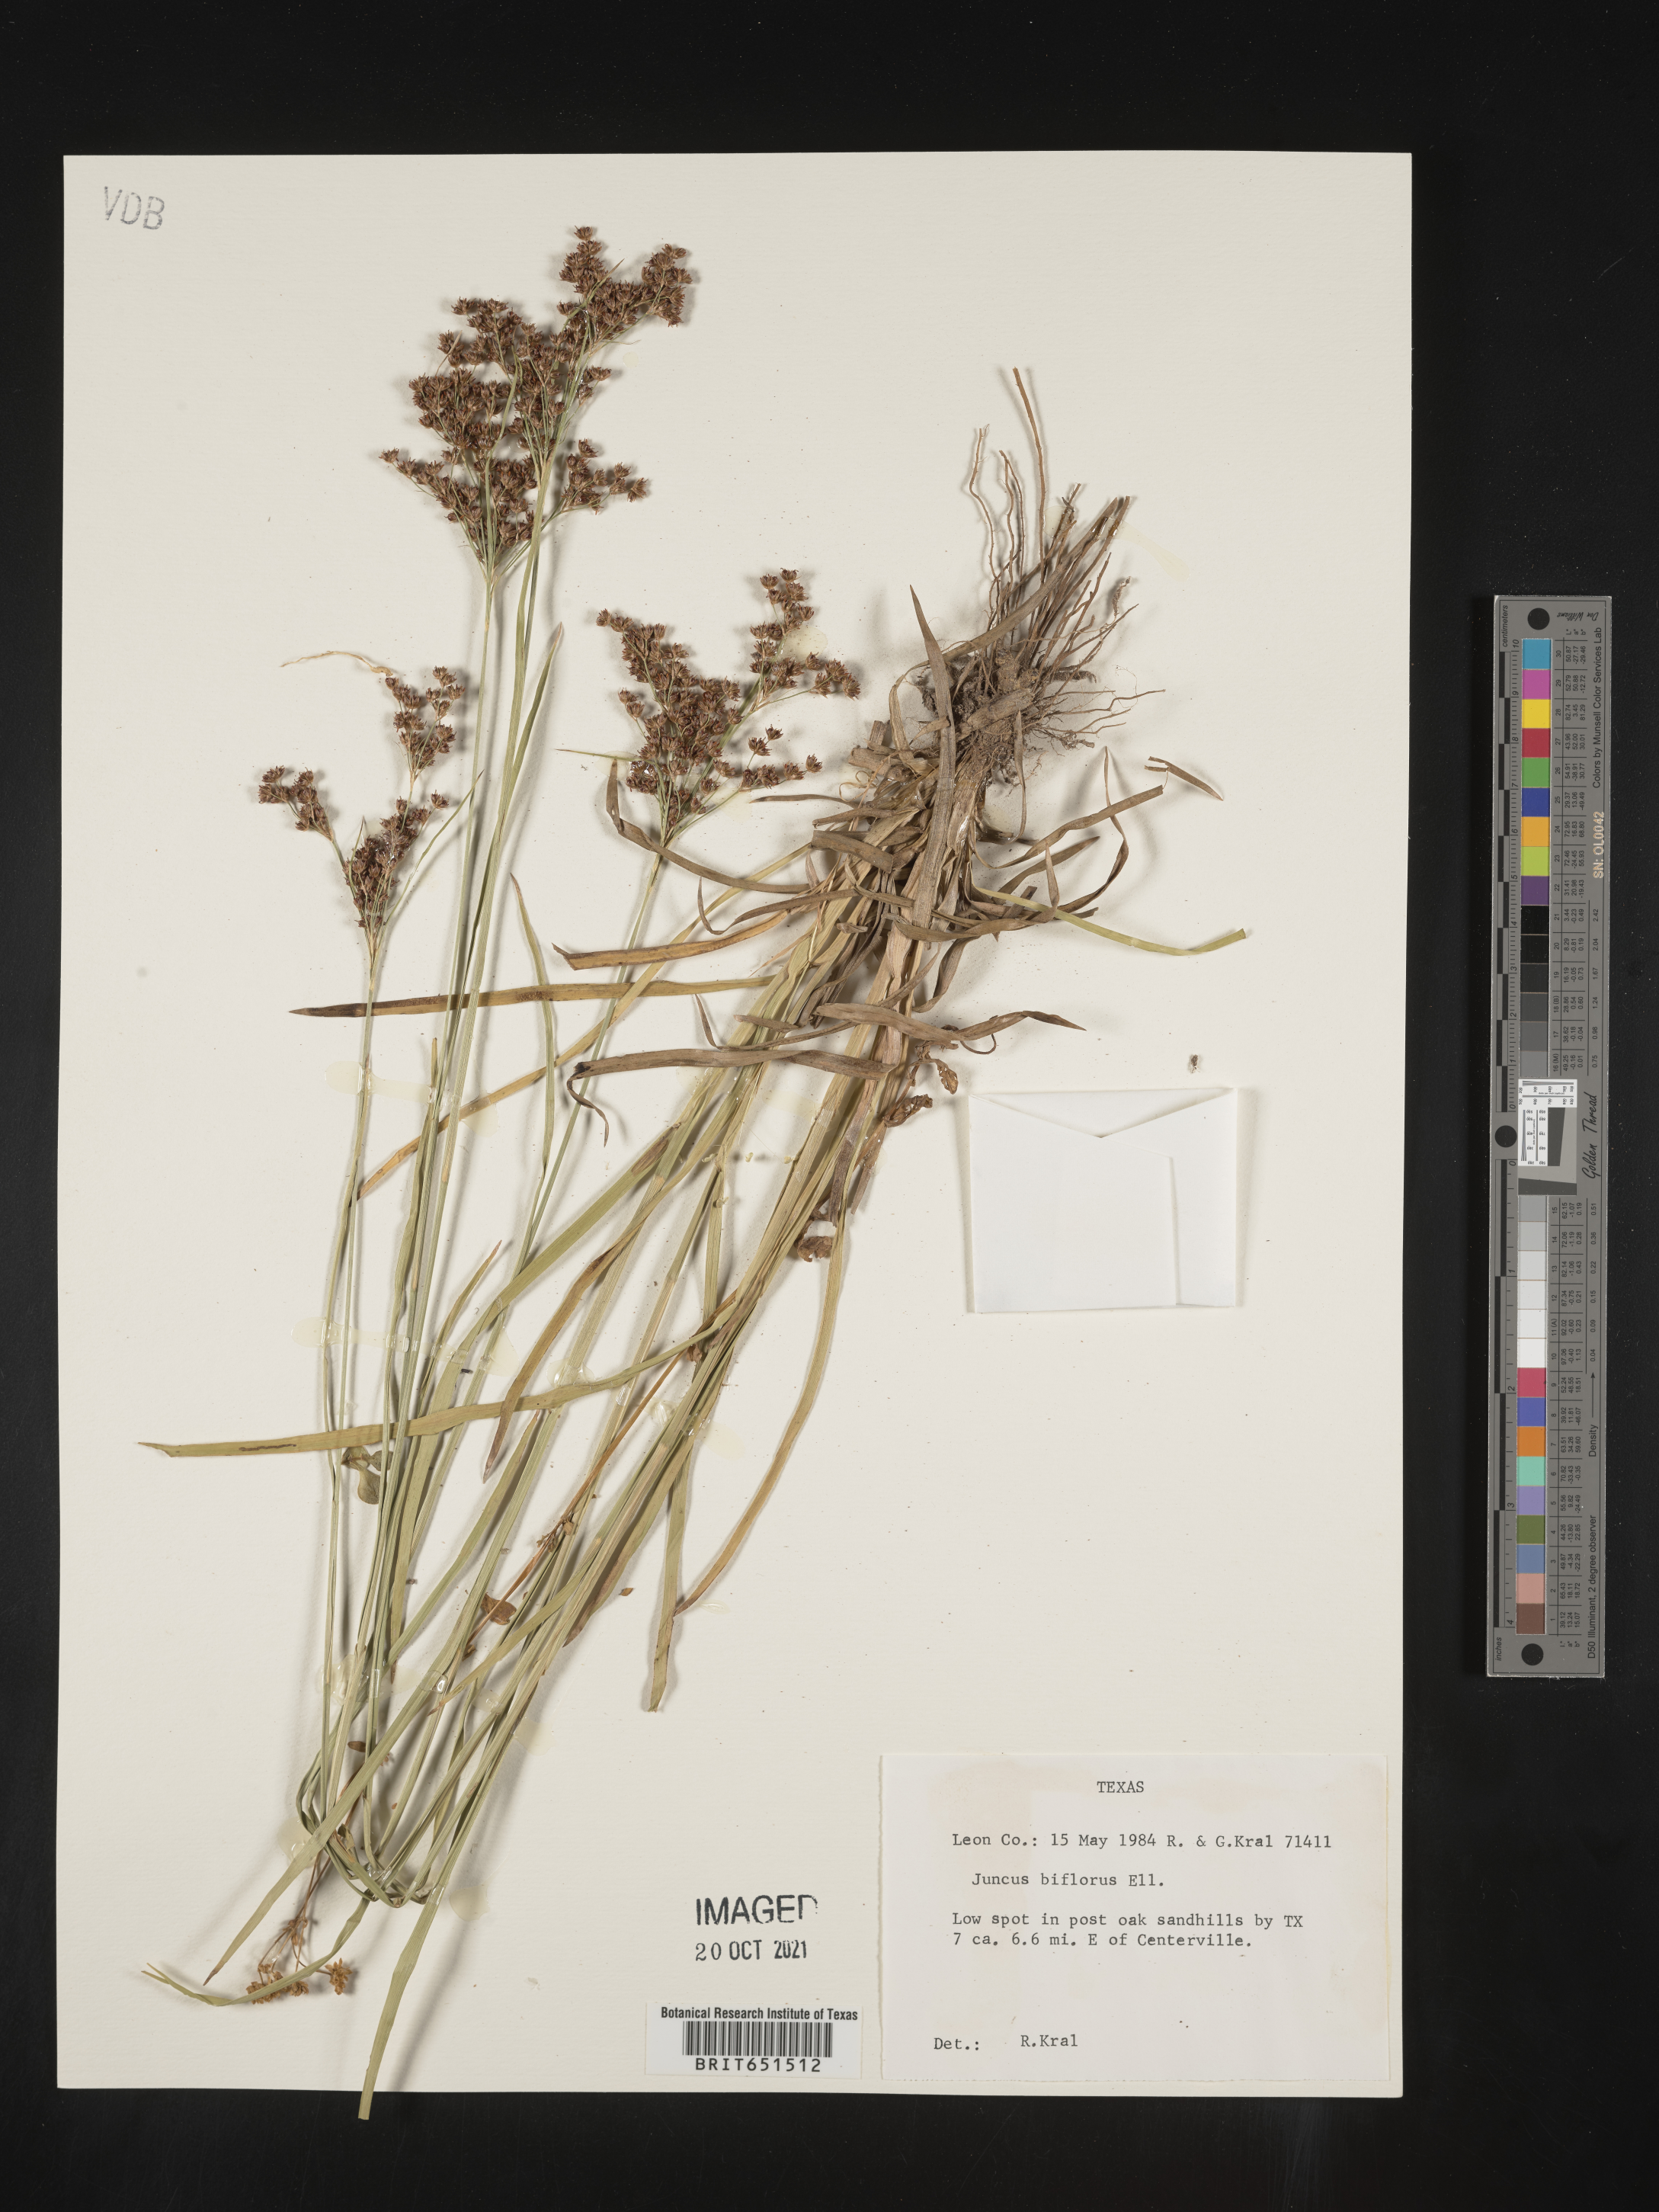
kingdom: Plantae
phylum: Tracheophyta
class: Liliopsida
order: Poales
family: Juncaceae
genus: Juncus
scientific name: Juncus biflorus
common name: Two-flowered rush
